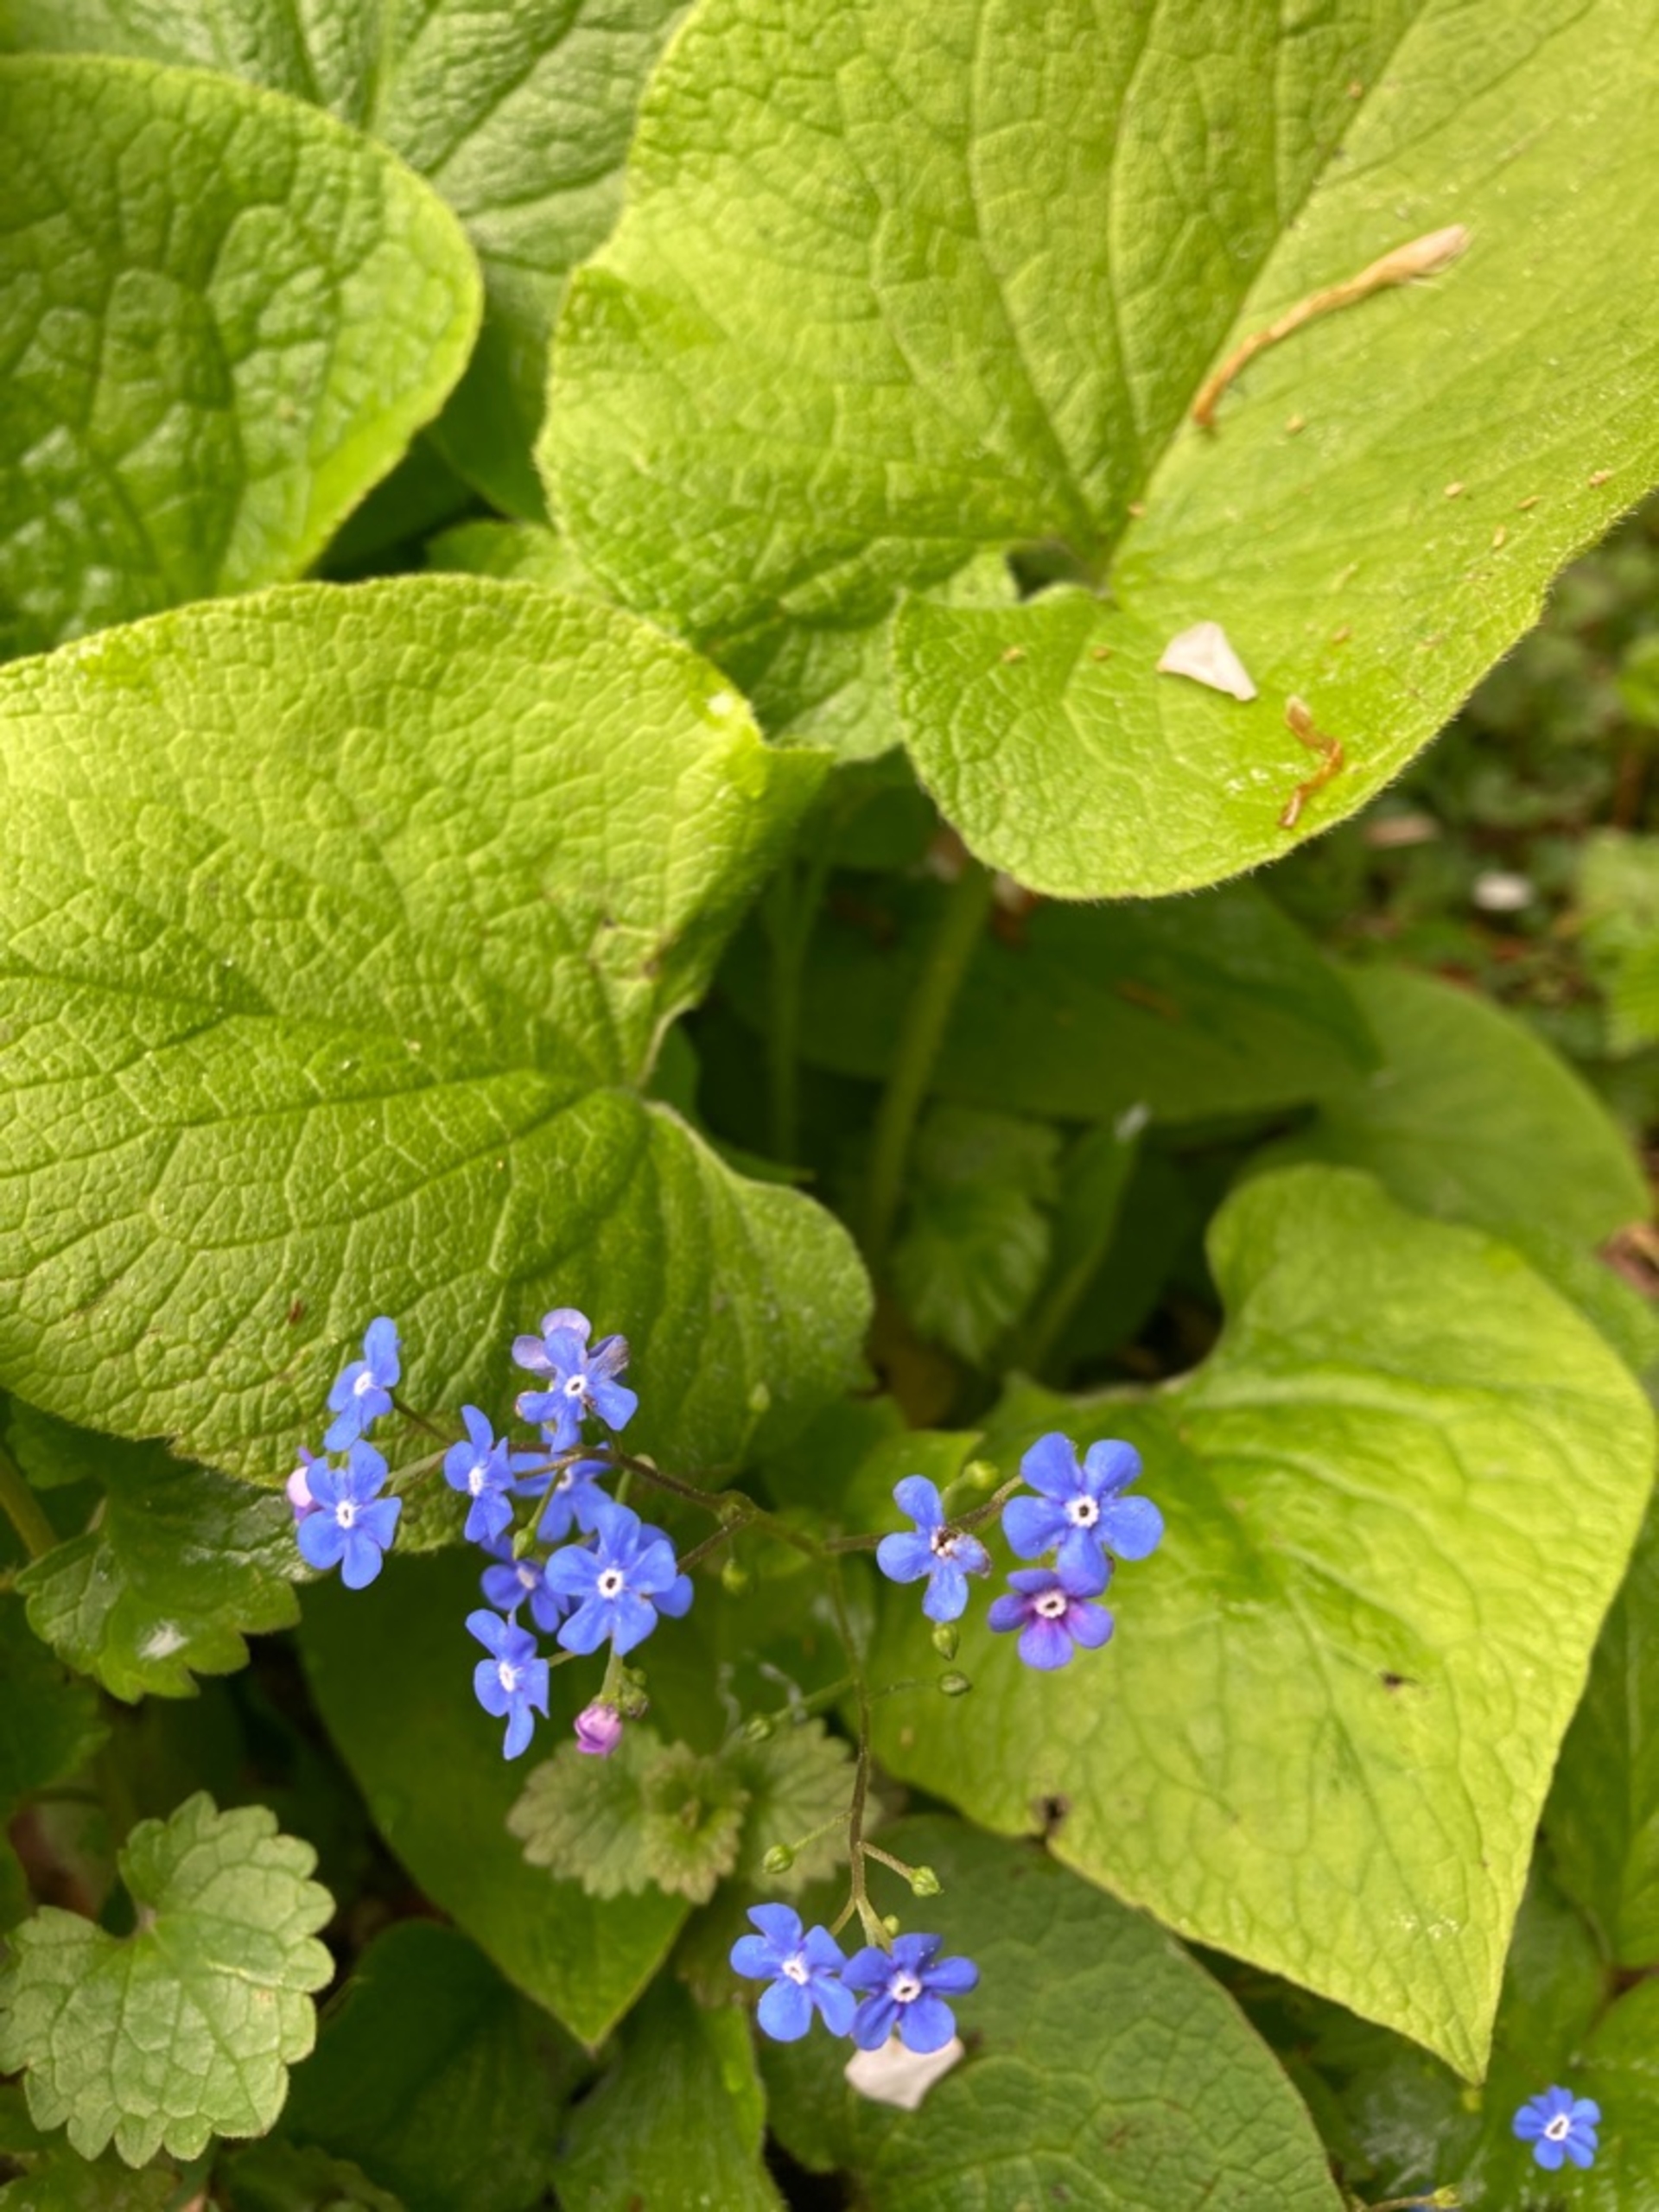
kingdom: Plantae
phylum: Tracheophyta
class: Magnoliopsida
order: Boraginales
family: Boraginaceae
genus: Brunnera
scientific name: Brunnera macrophylla
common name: Kærmindesøster
